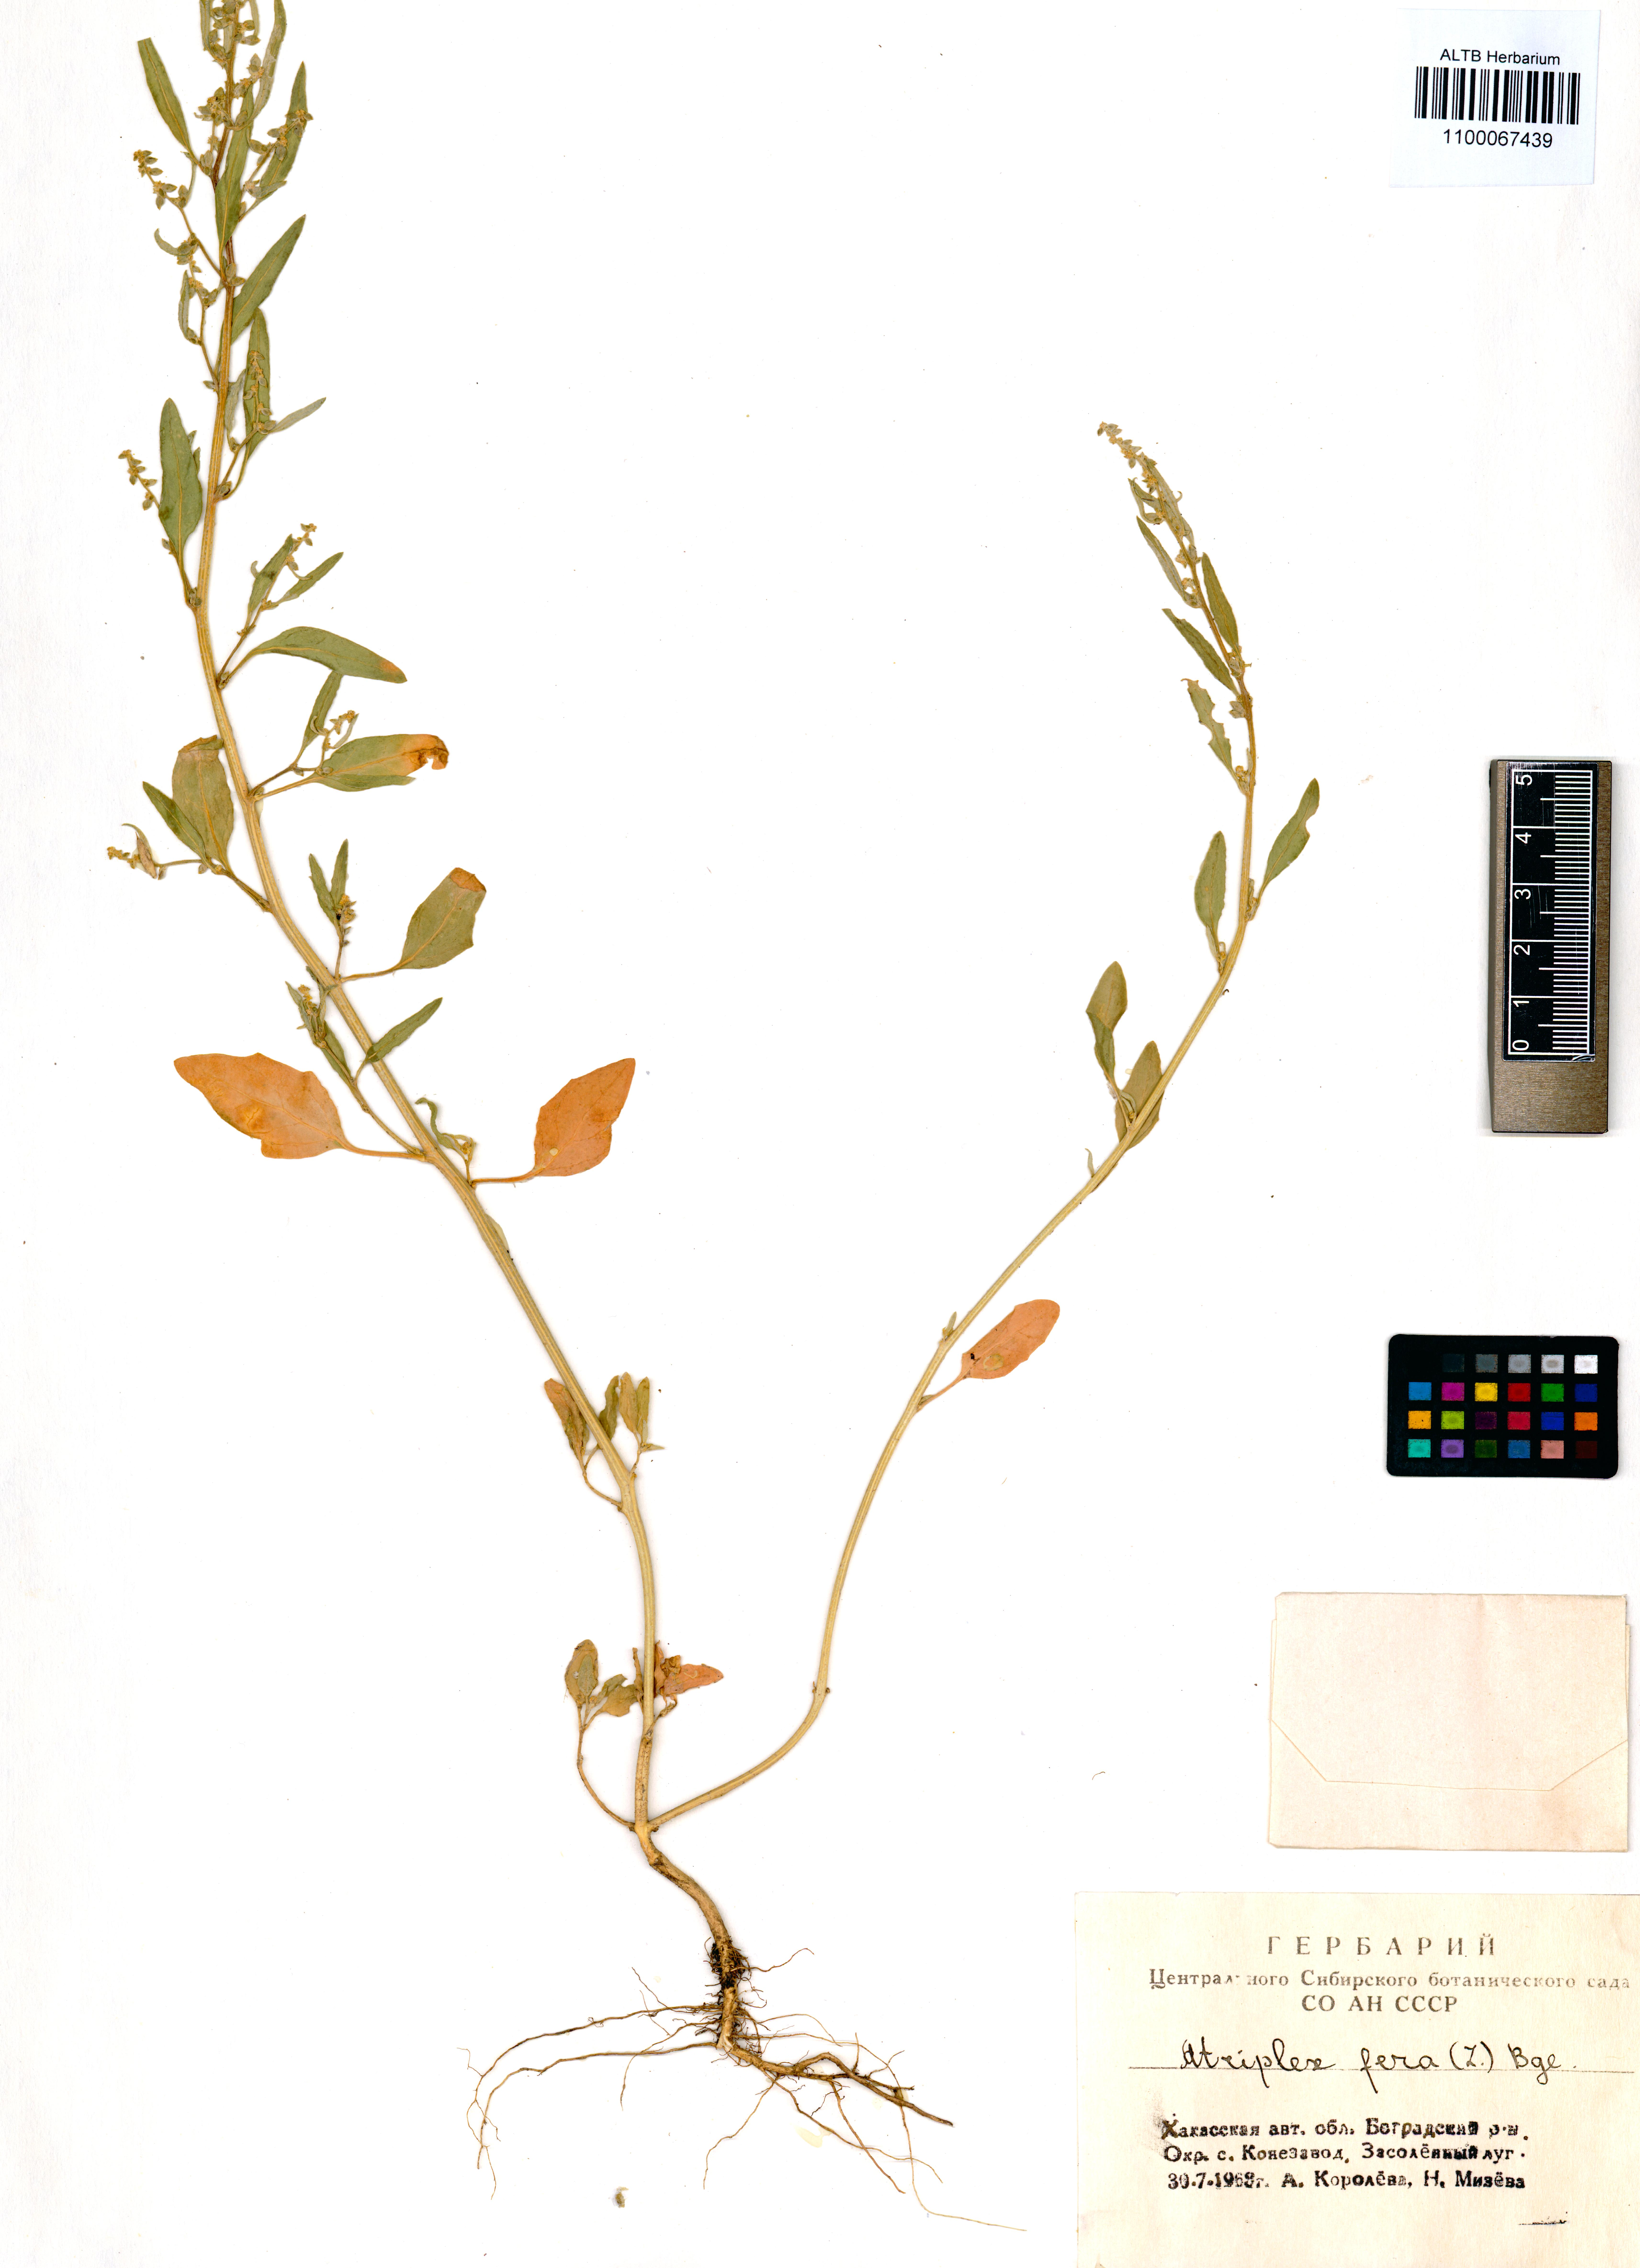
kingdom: Plantae
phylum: Tracheophyta
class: Magnoliopsida
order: Caryophyllales
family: Amaranthaceae
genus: Atriplex
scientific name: Atriplex fera
